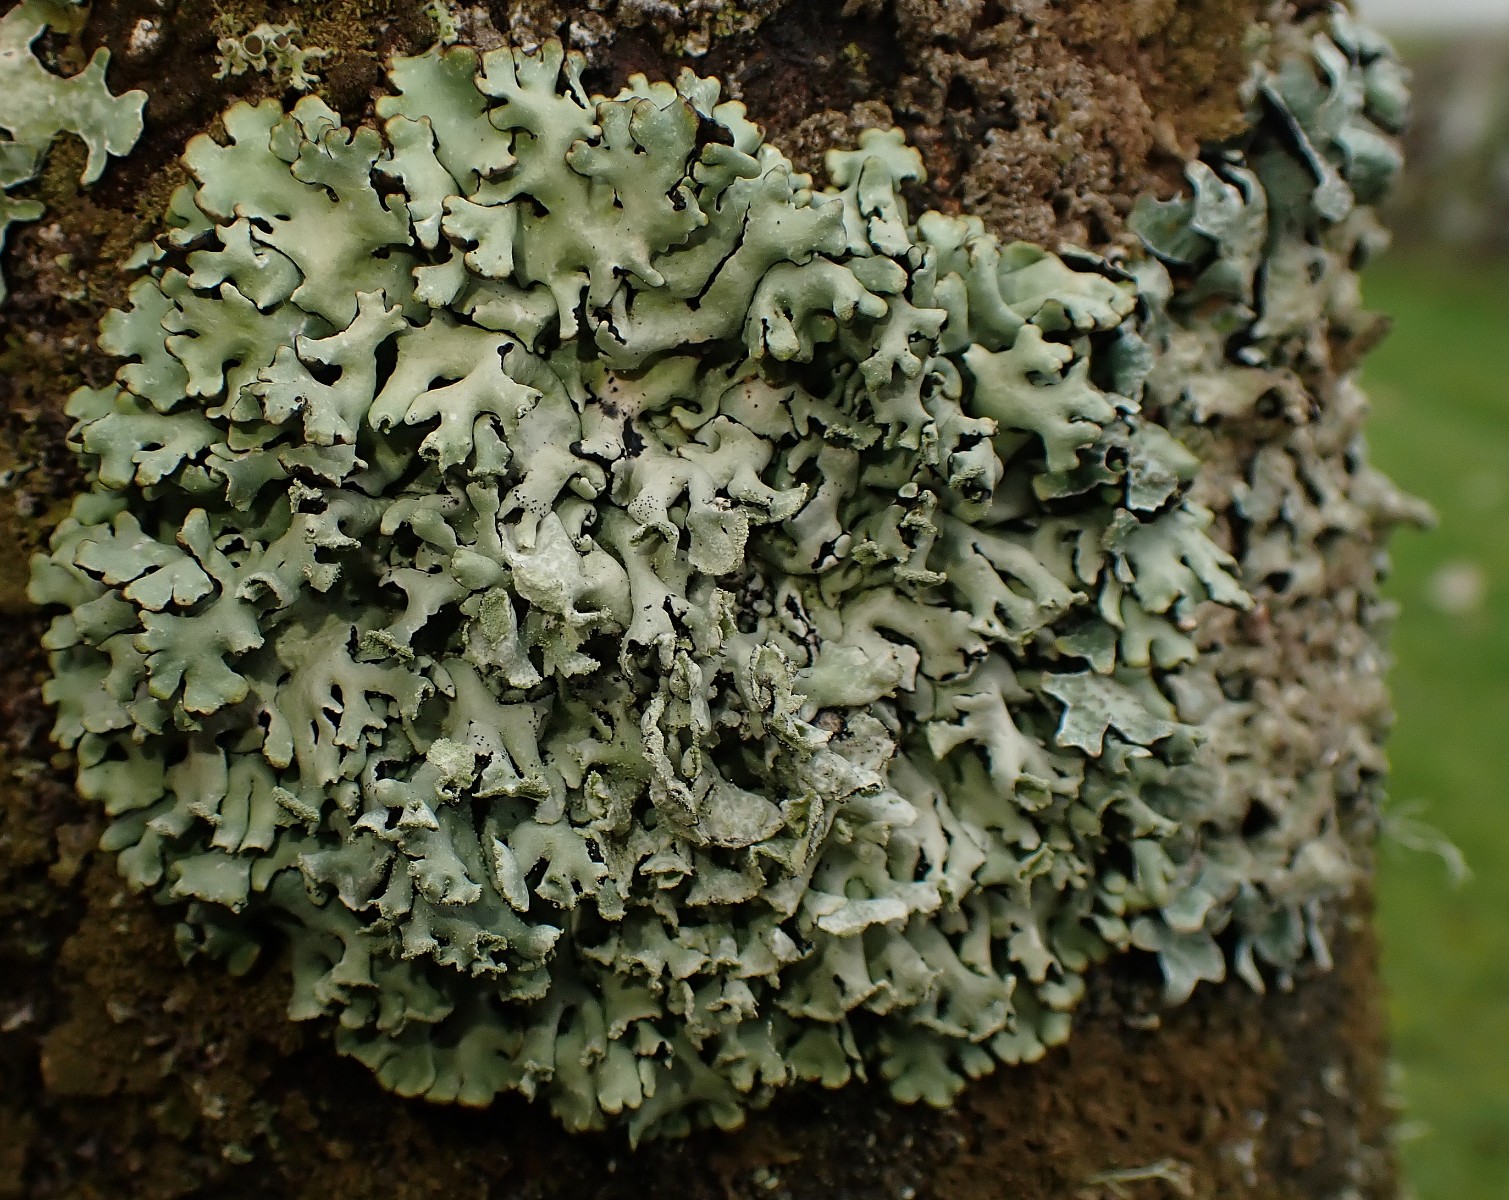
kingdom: Fungi
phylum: Ascomycota
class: Lecanoromycetes
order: Lecanorales
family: Parmeliaceae
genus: Hypogymnia
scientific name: Hypogymnia physodes
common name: almindelig kvistlav
